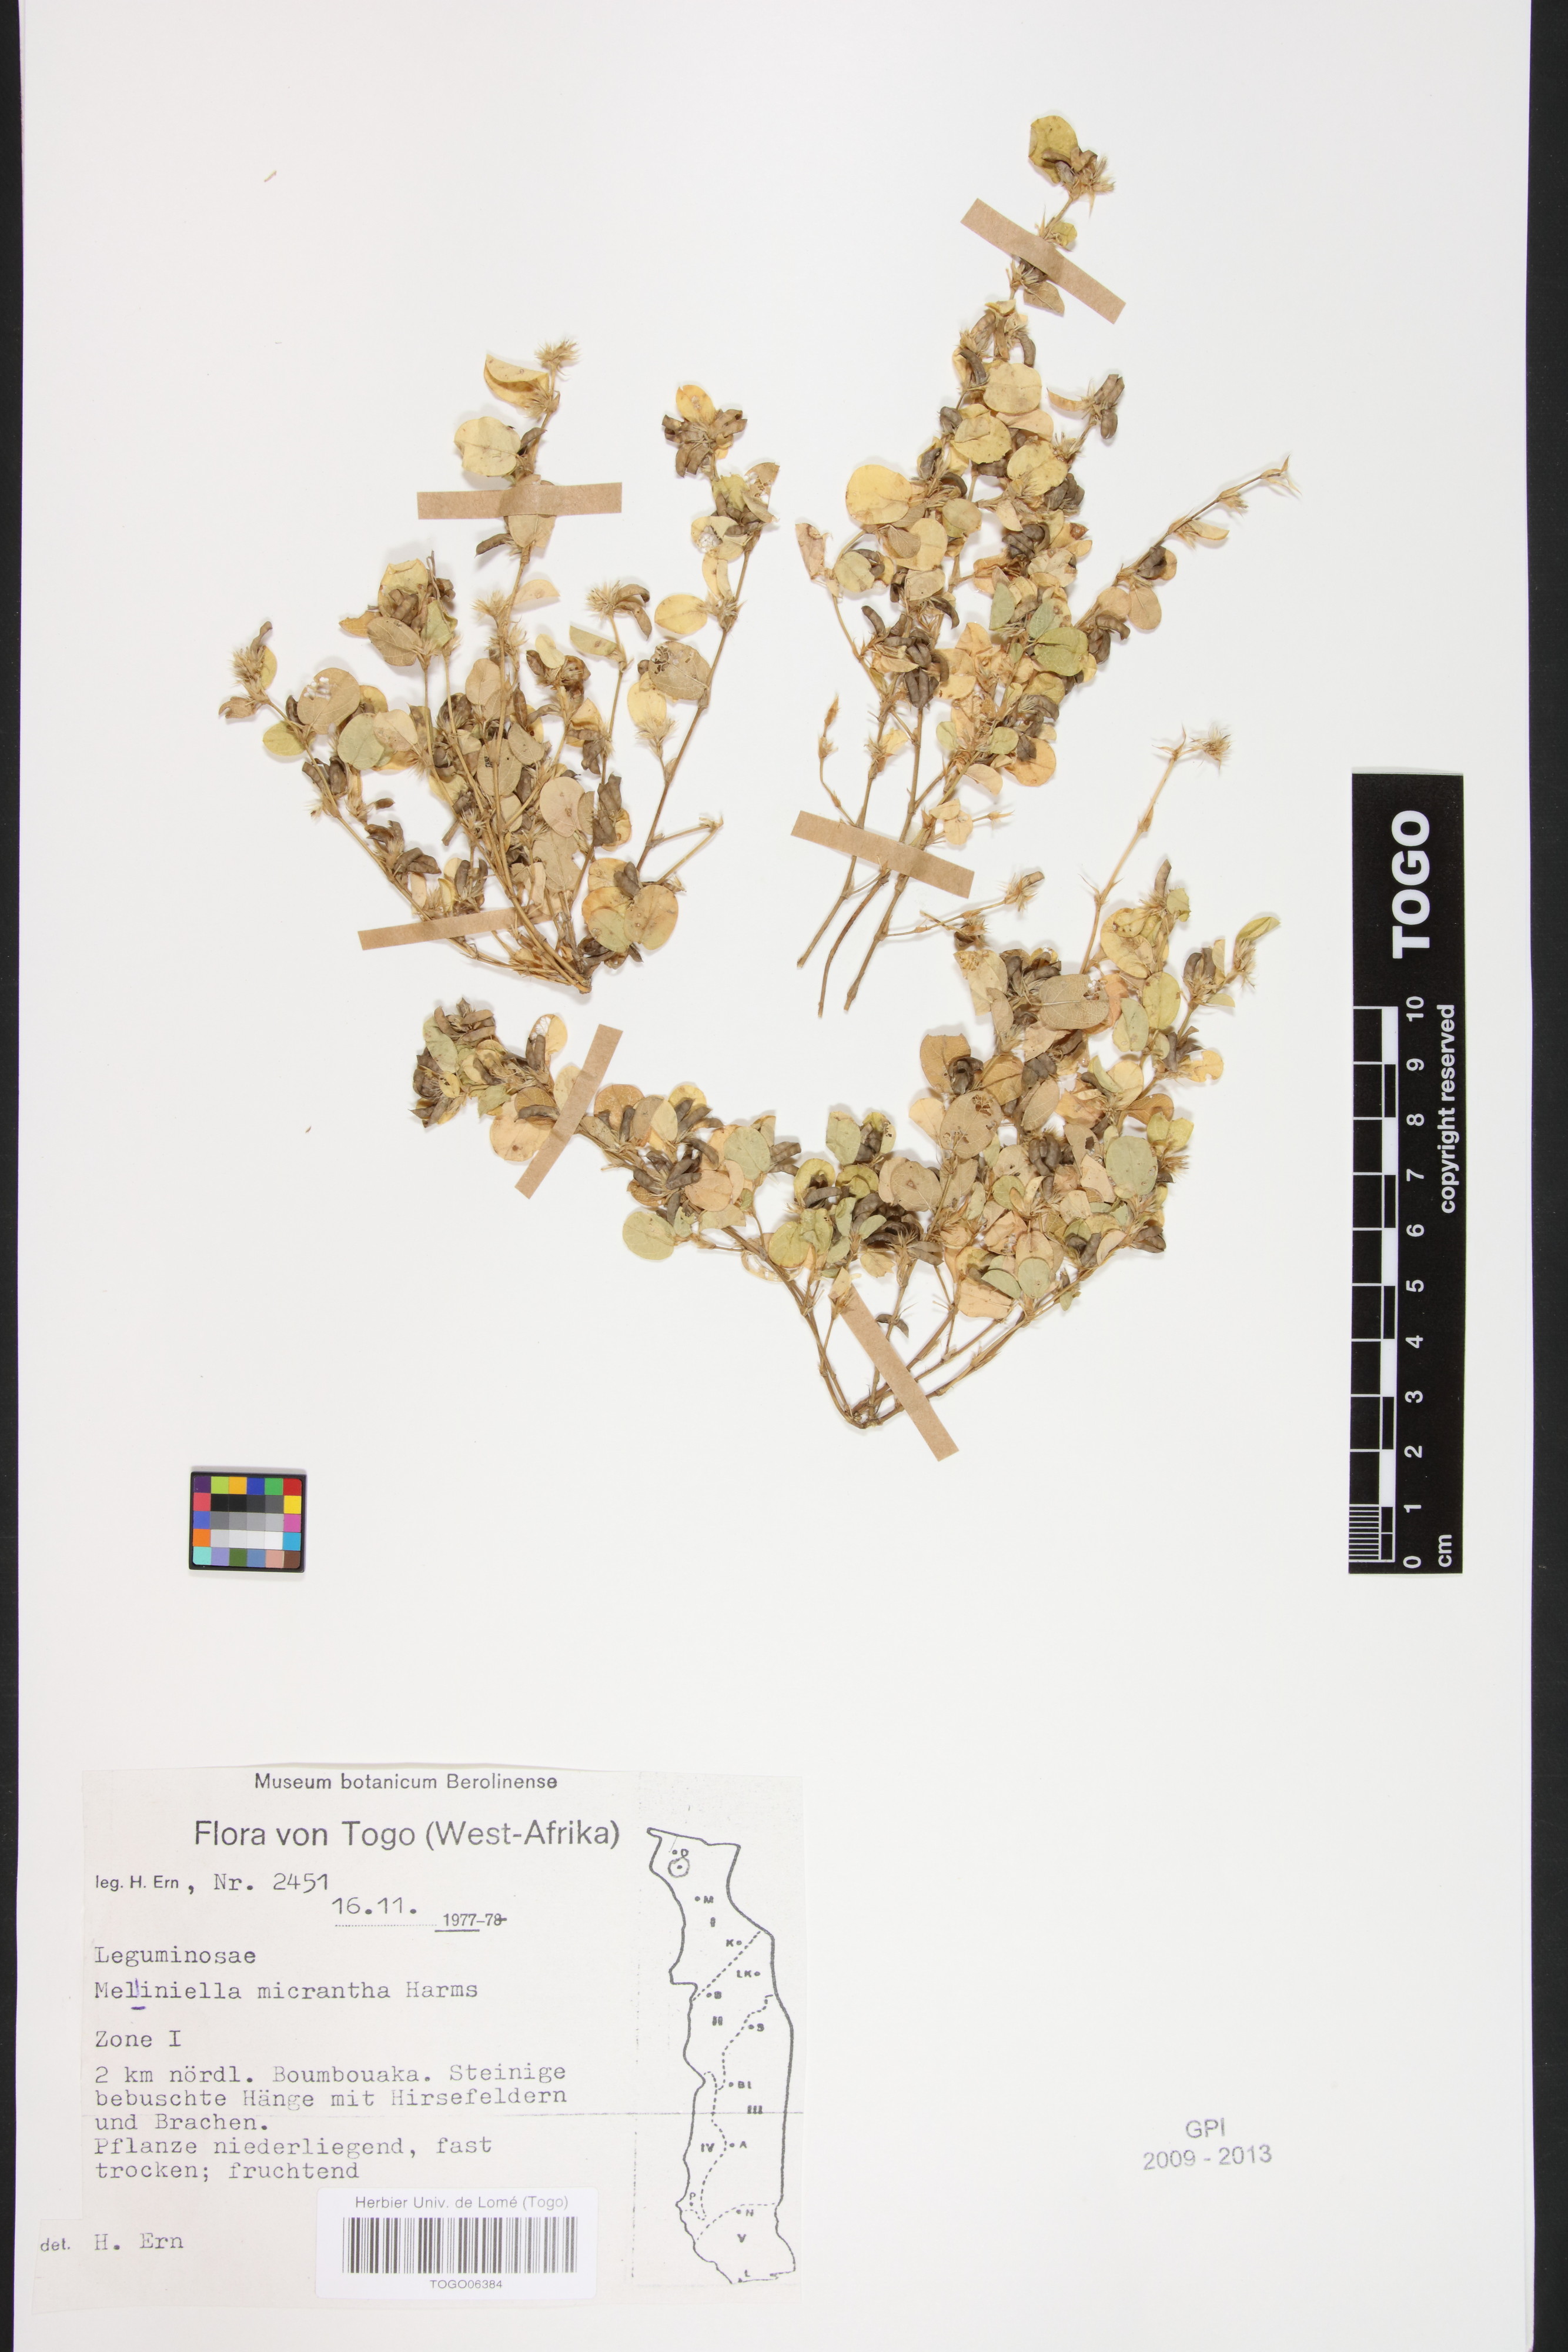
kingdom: Plantae
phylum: Tracheophyta
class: Magnoliopsida
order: Fabales
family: Fabaceae
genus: Melliniella
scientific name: Melliniella micrantha
